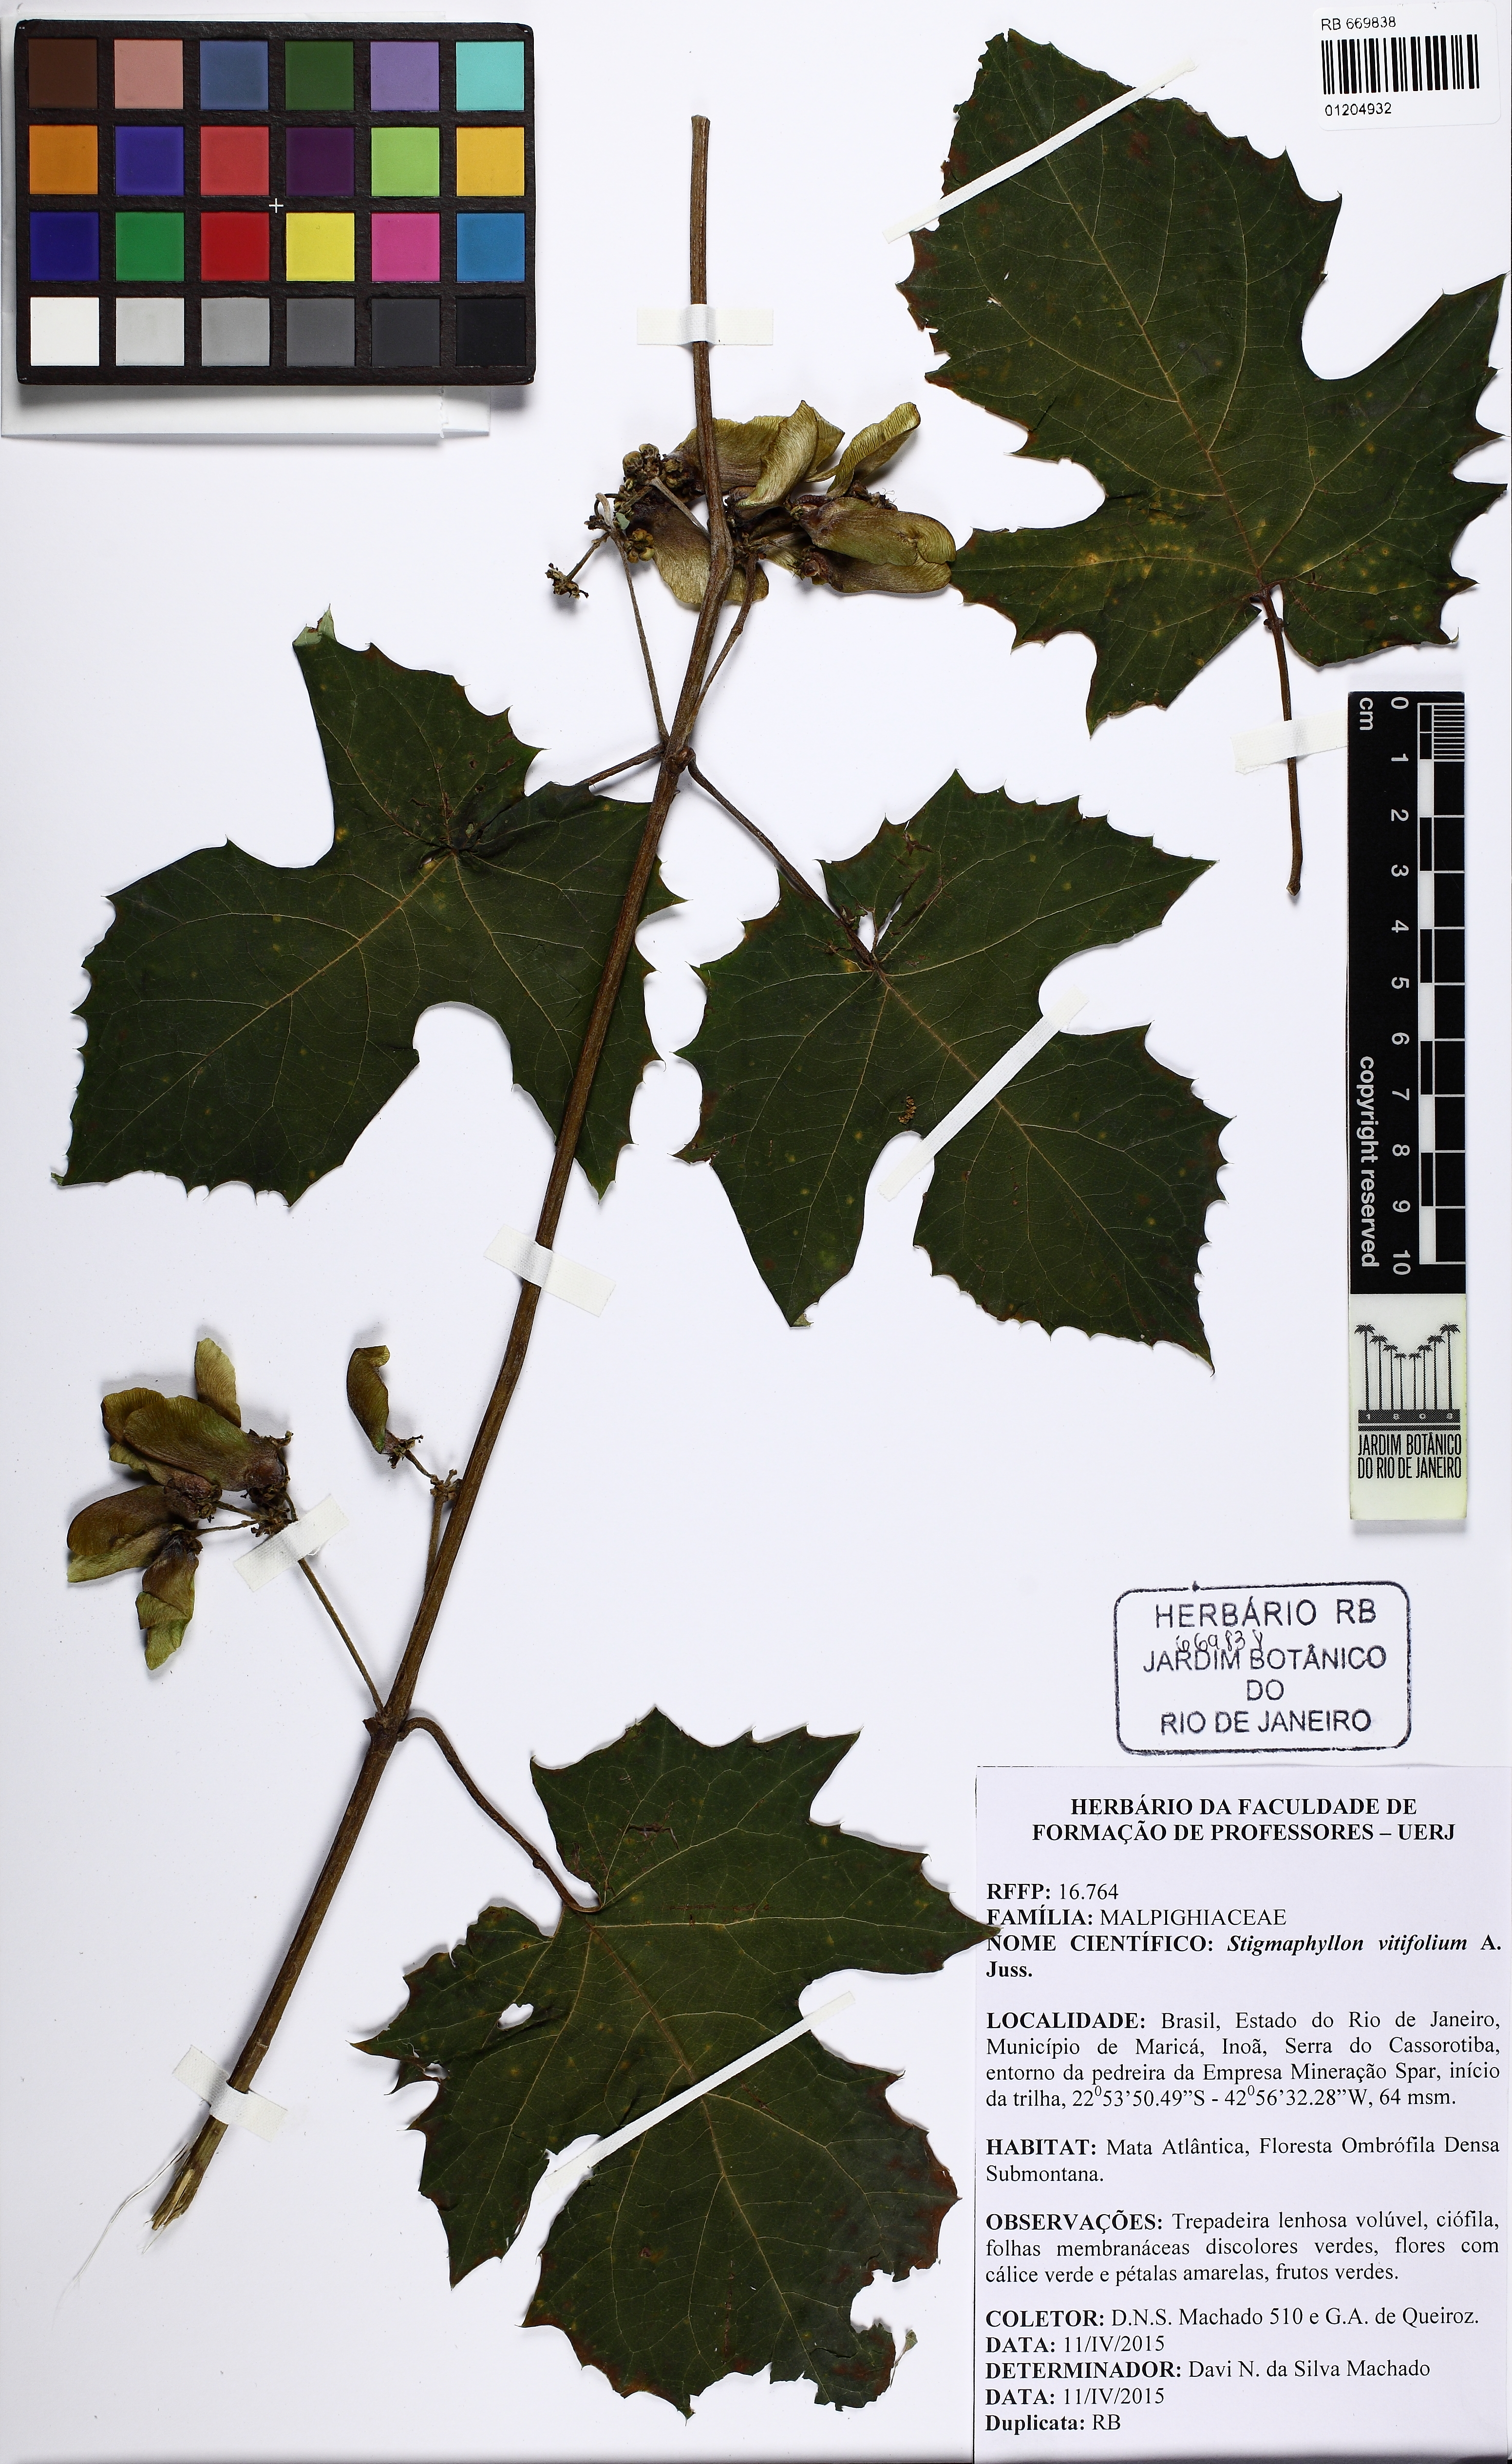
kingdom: Plantae
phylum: Tracheophyta
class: Magnoliopsida
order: Malpighiales
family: Malpighiaceae
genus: Stigmaphyllon
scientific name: Stigmaphyllon vitifolium
